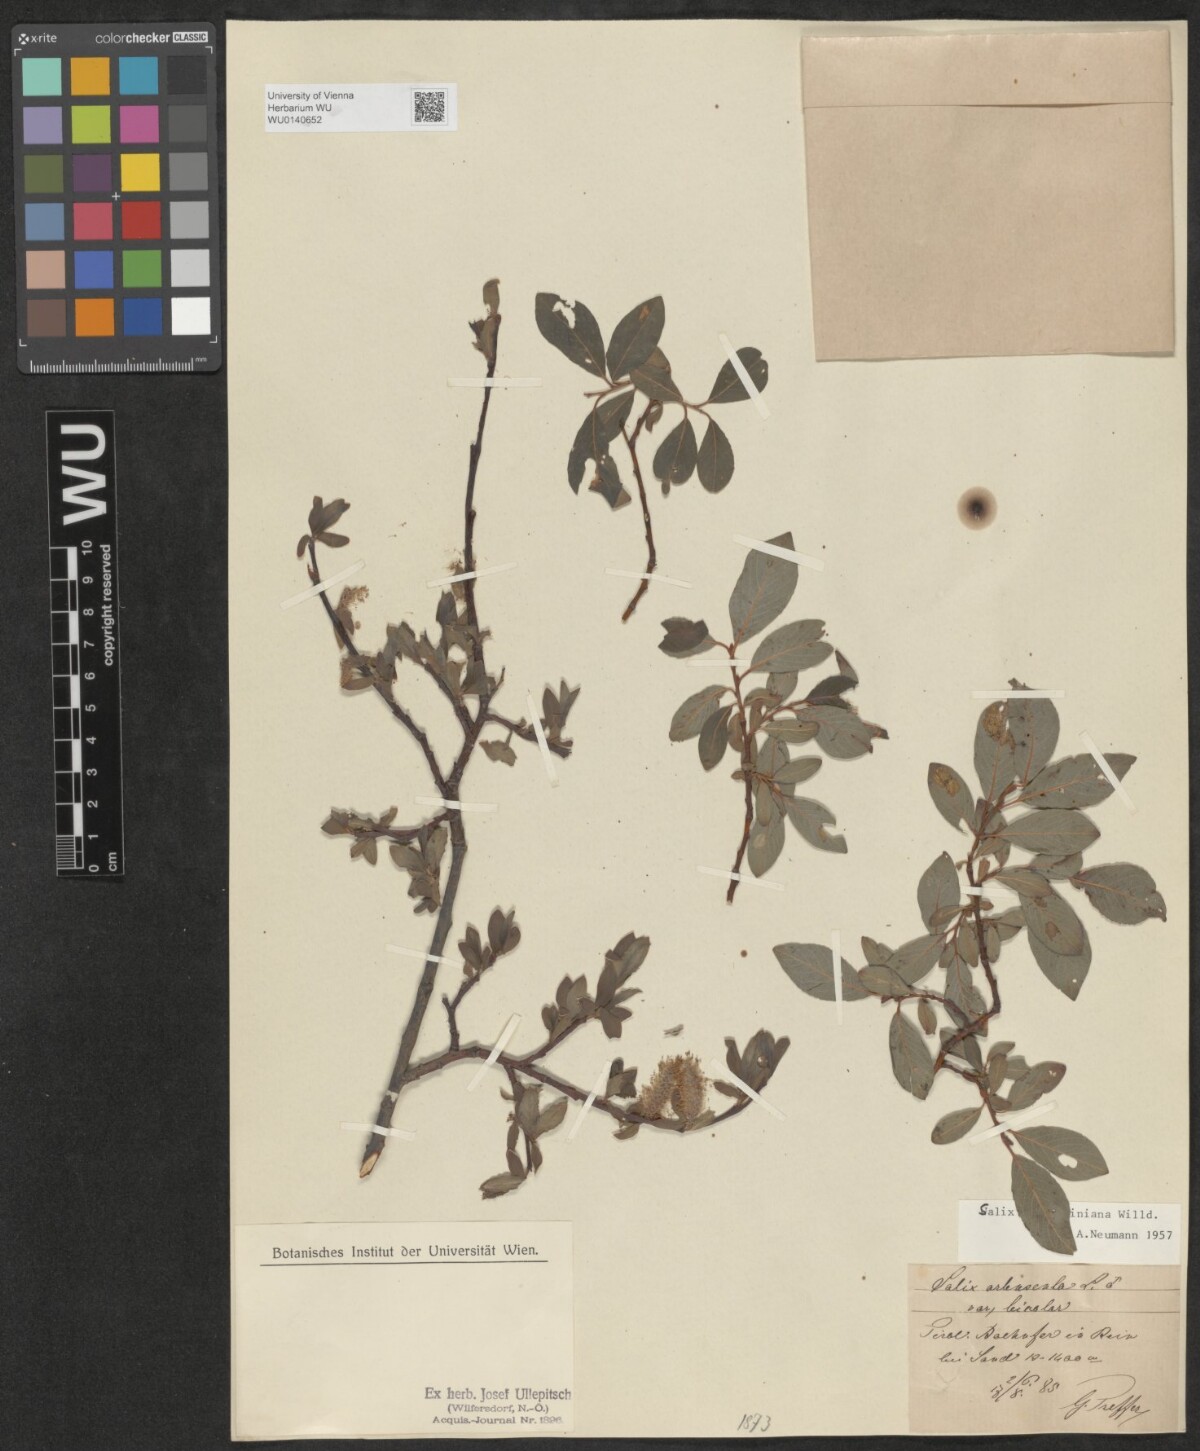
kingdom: Plantae
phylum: Tracheophyta
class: Magnoliopsida
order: Malpighiales
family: Salicaceae
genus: Salix
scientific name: Salix waldsteiniana
